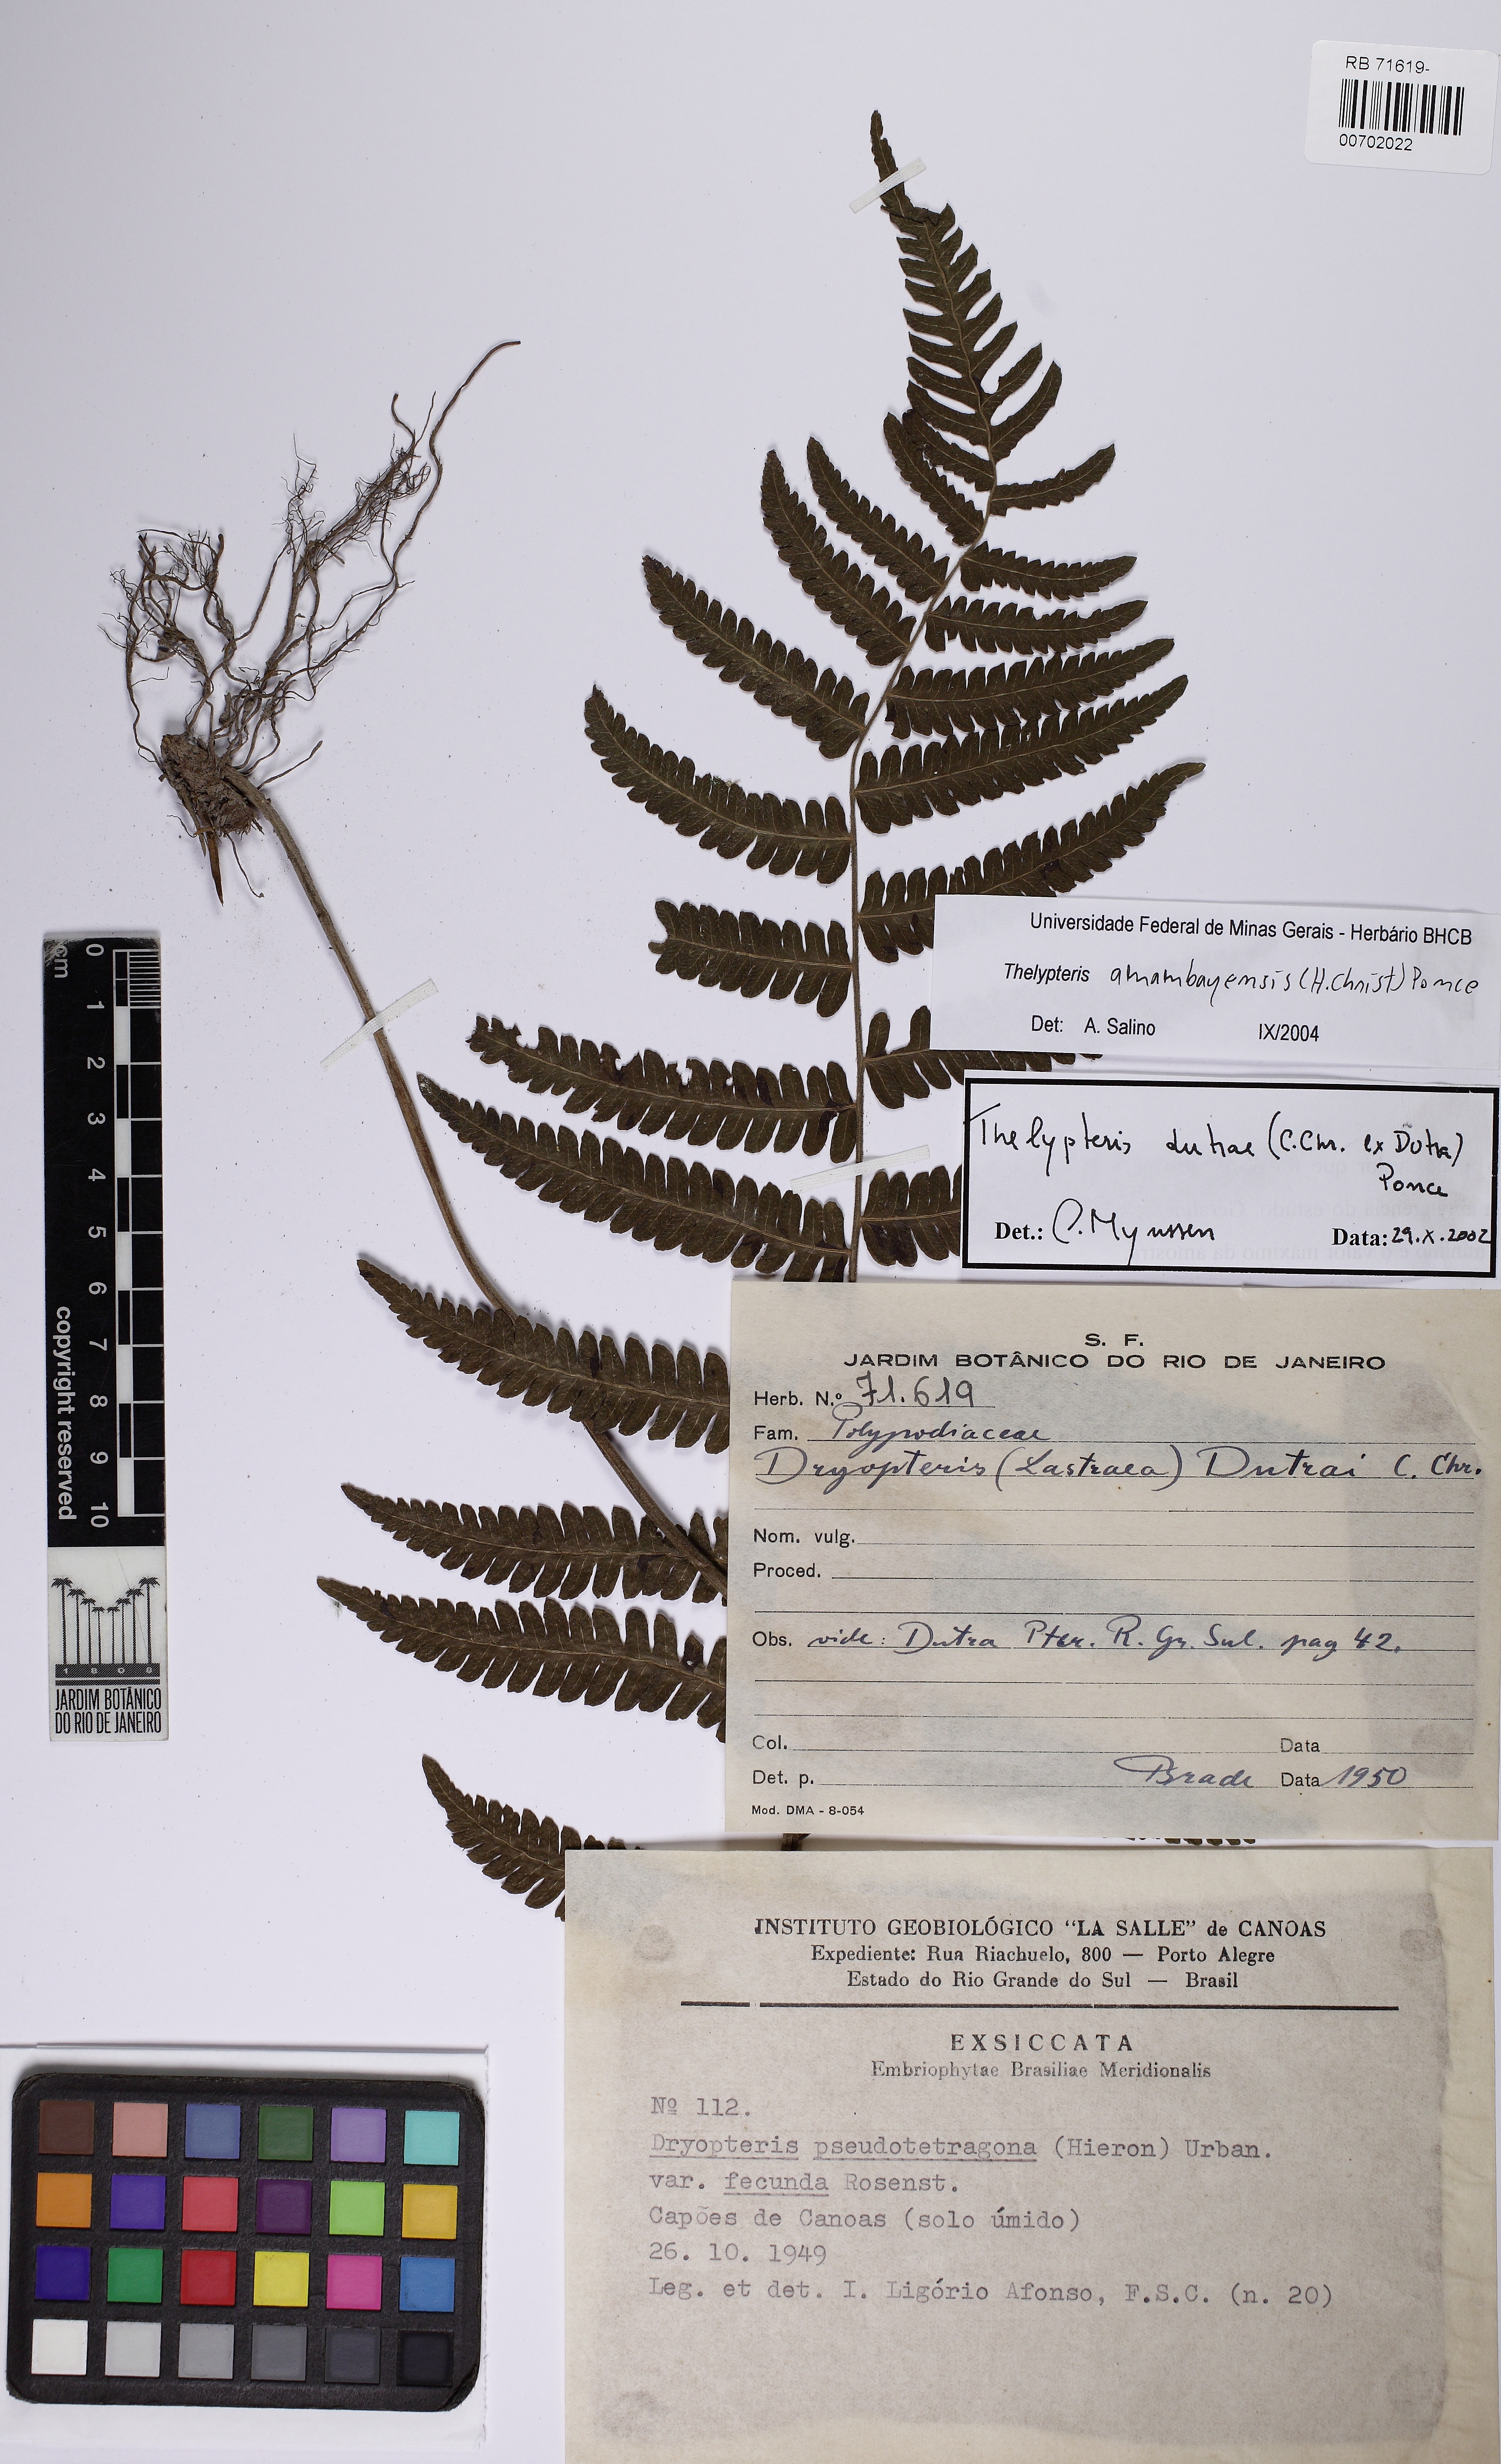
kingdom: Plantae
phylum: Tracheophyta
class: Polypodiopsida
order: Polypodiales
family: Thelypteridaceae
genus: Amauropelta
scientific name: Amauropelta amambayensis
